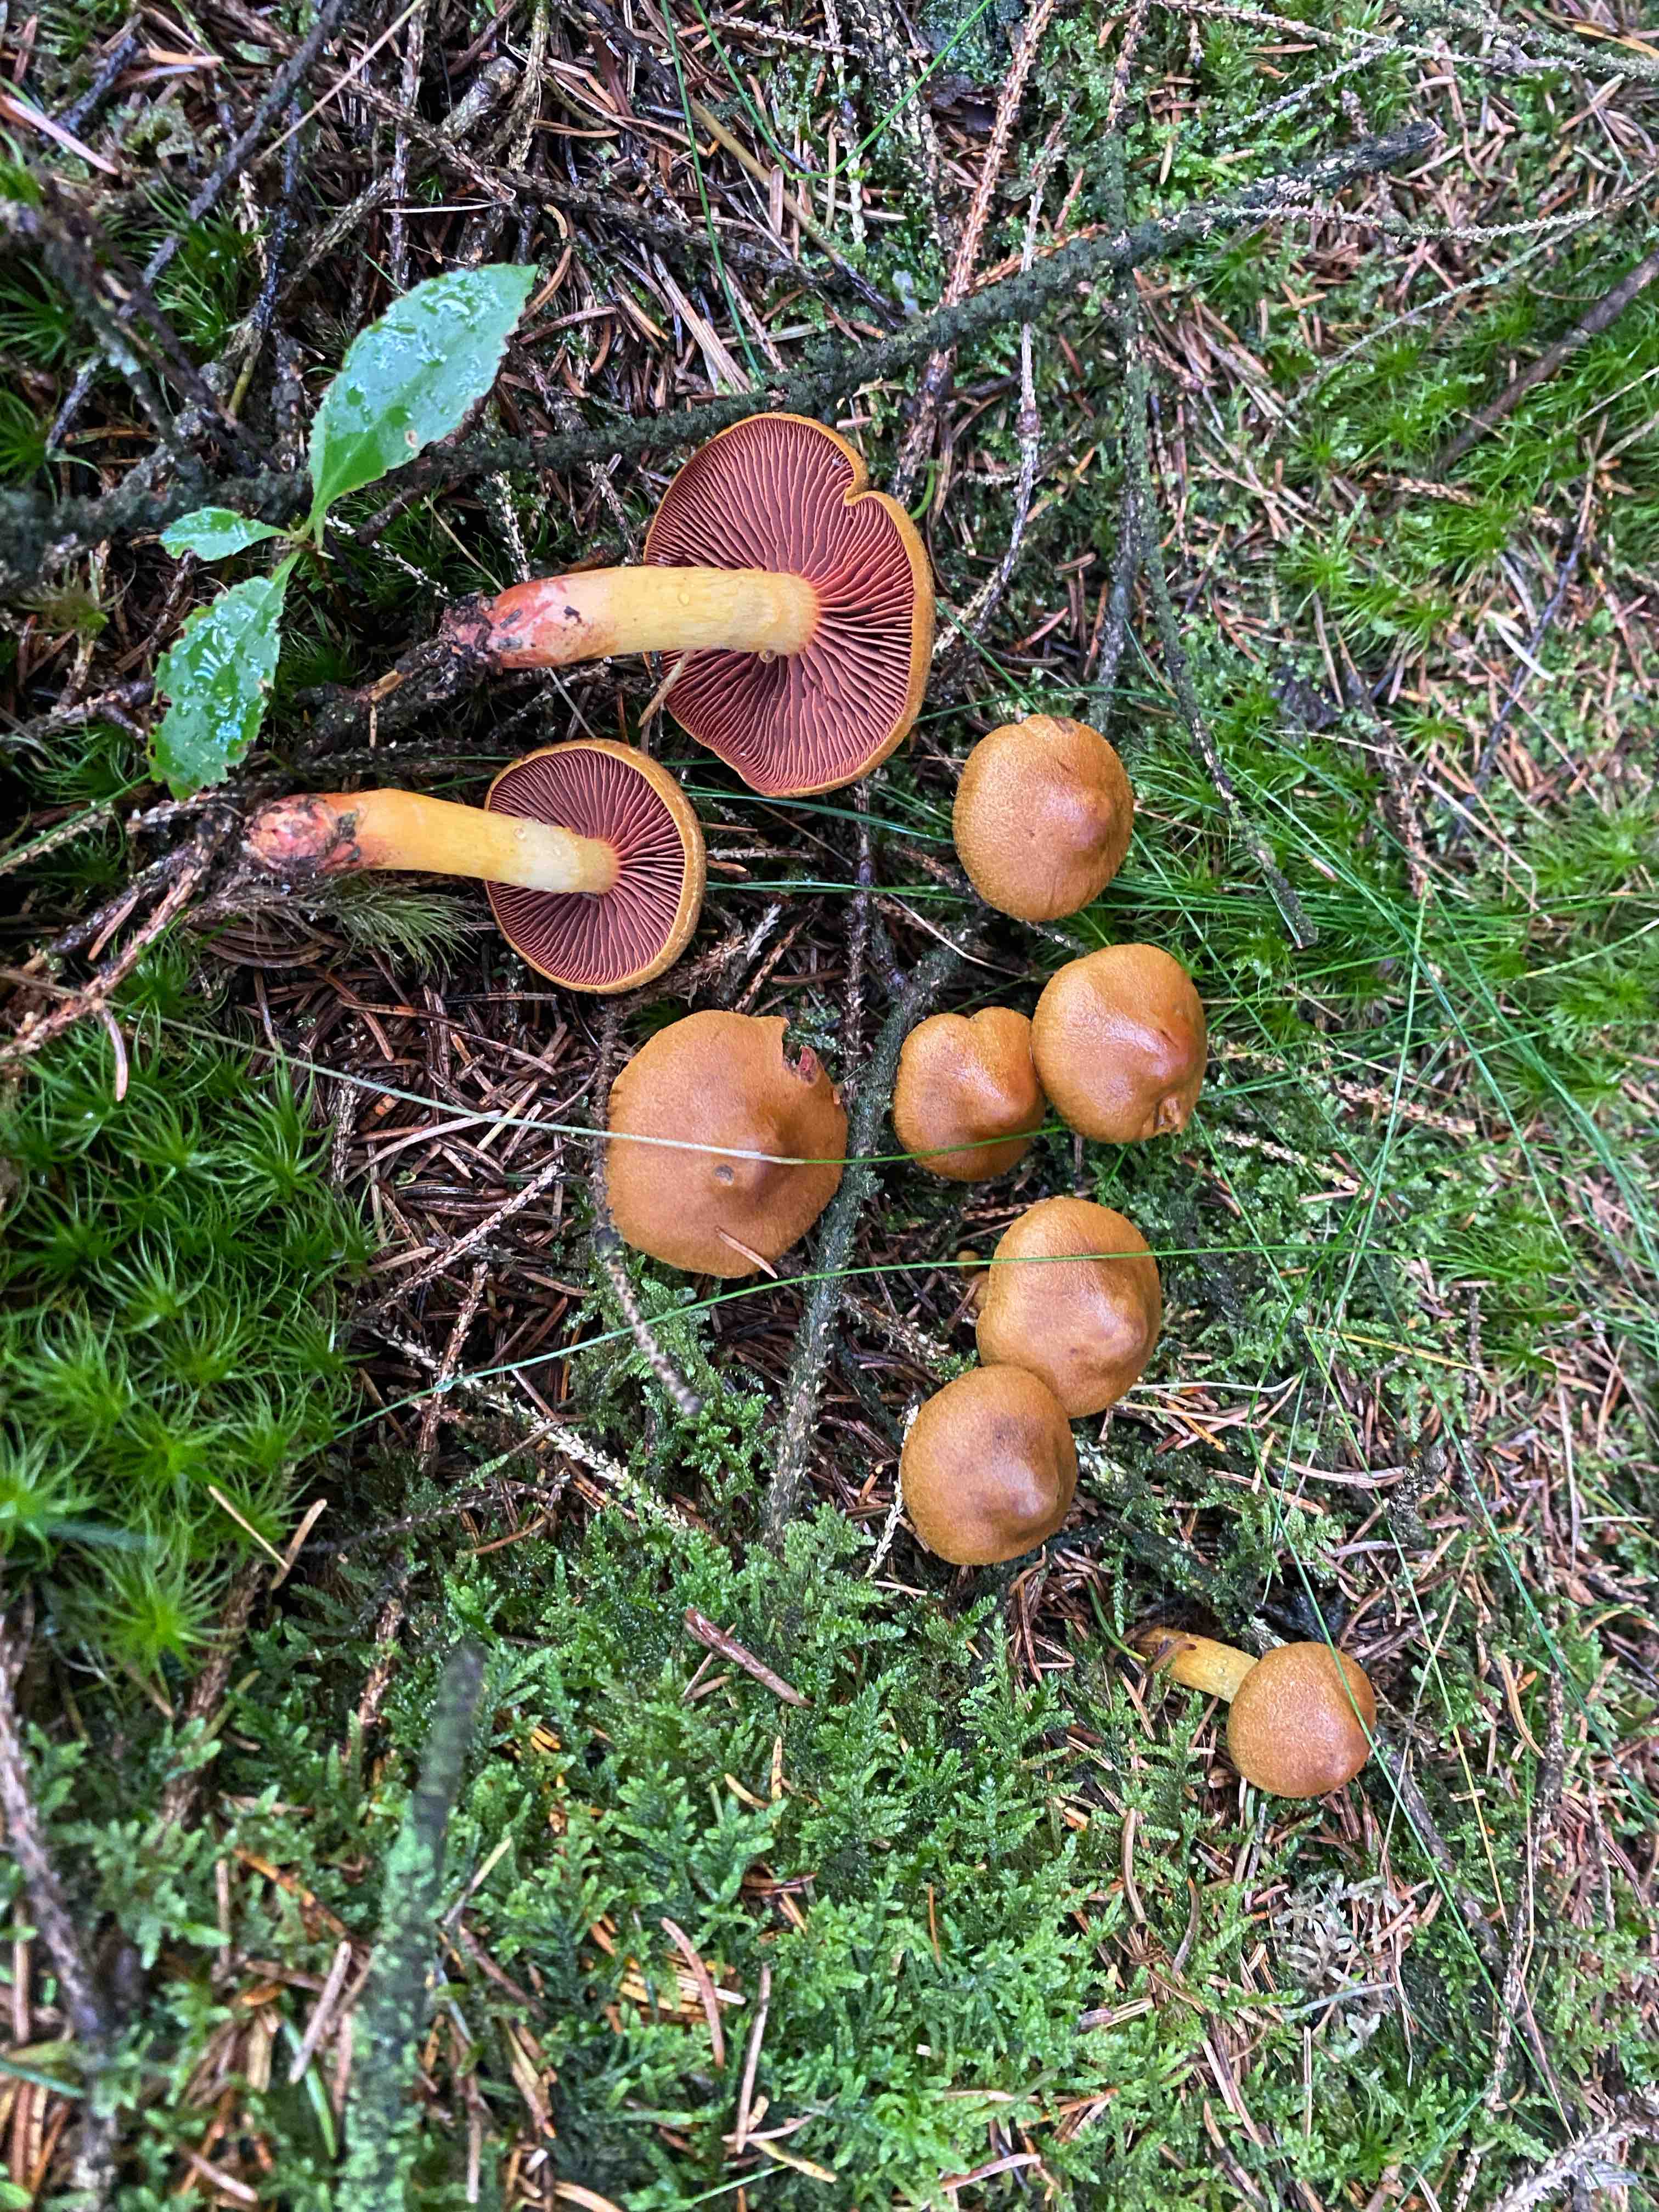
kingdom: Fungi
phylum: Basidiomycota
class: Agaricomycetes
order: Agaricales
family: Cortinariaceae
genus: Cortinarius
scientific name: Cortinarius
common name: cinnoberbladet slørhat
